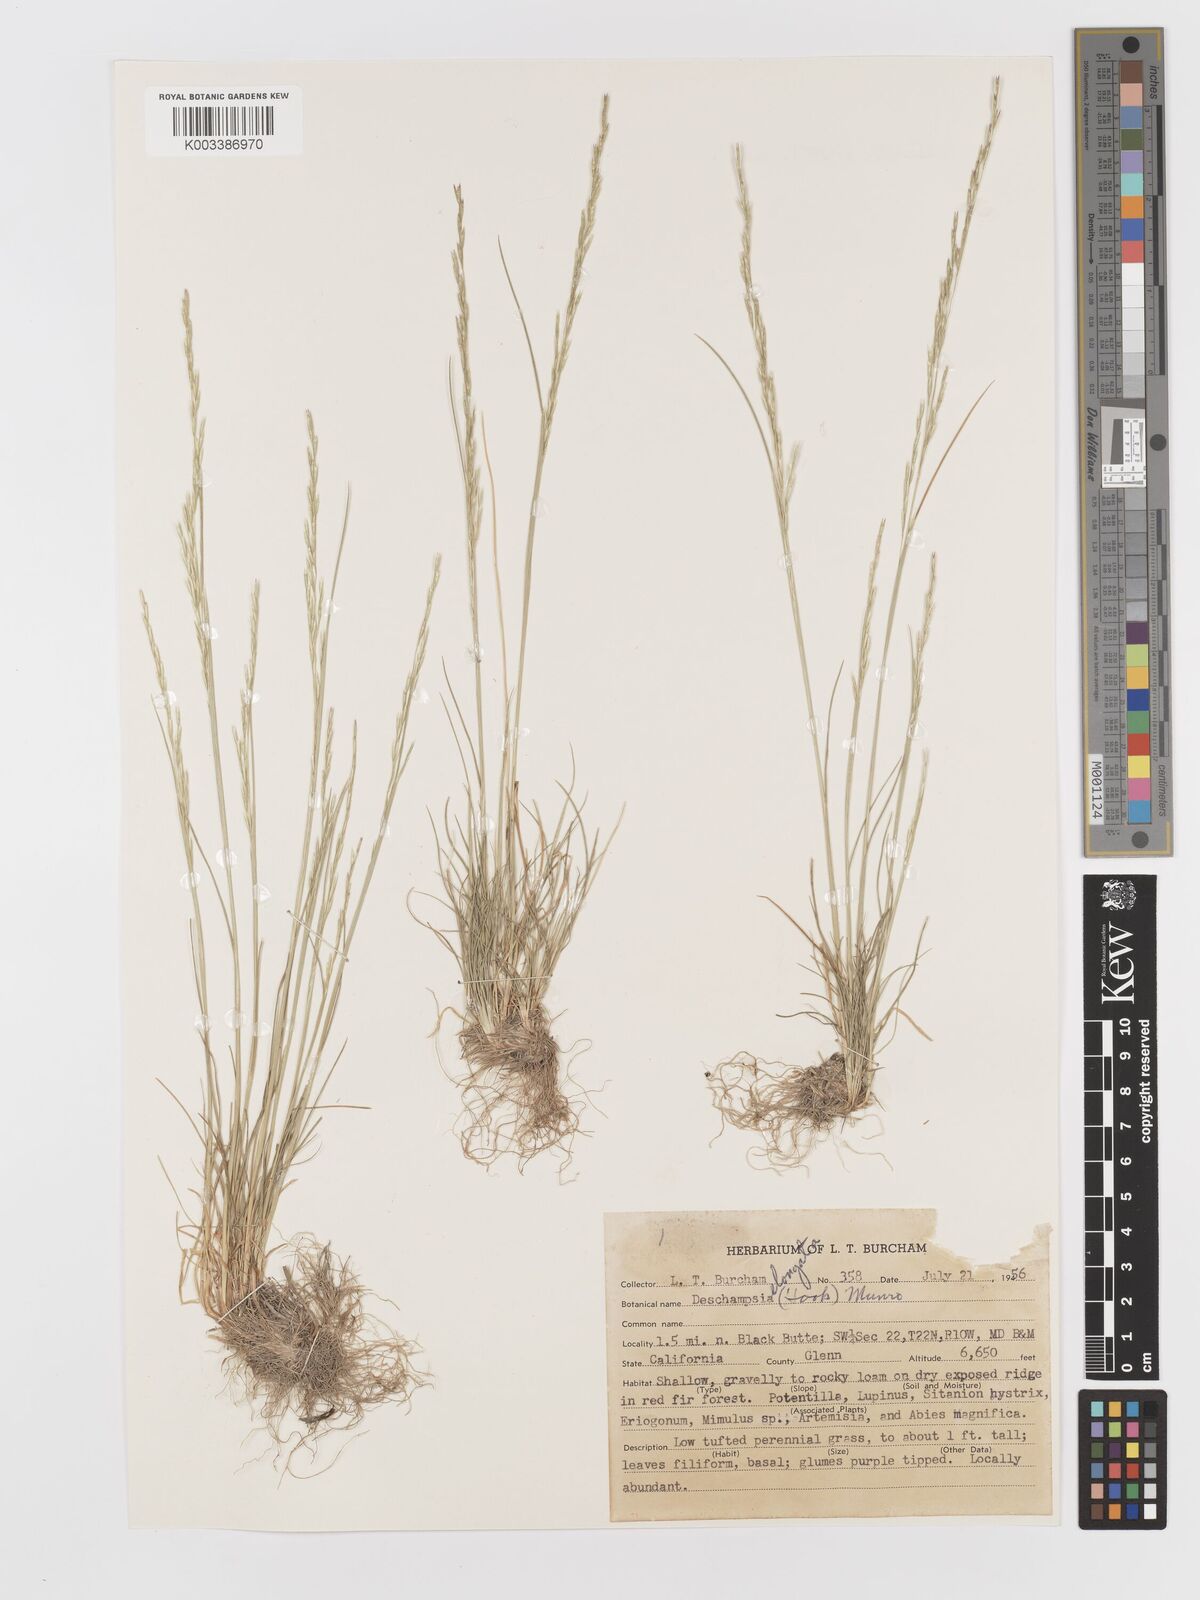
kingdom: Plantae
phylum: Tracheophyta
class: Liliopsida
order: Poales
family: Poaceae
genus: Deschampsia
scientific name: Deschampsia elongata
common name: Slender hairgrass
